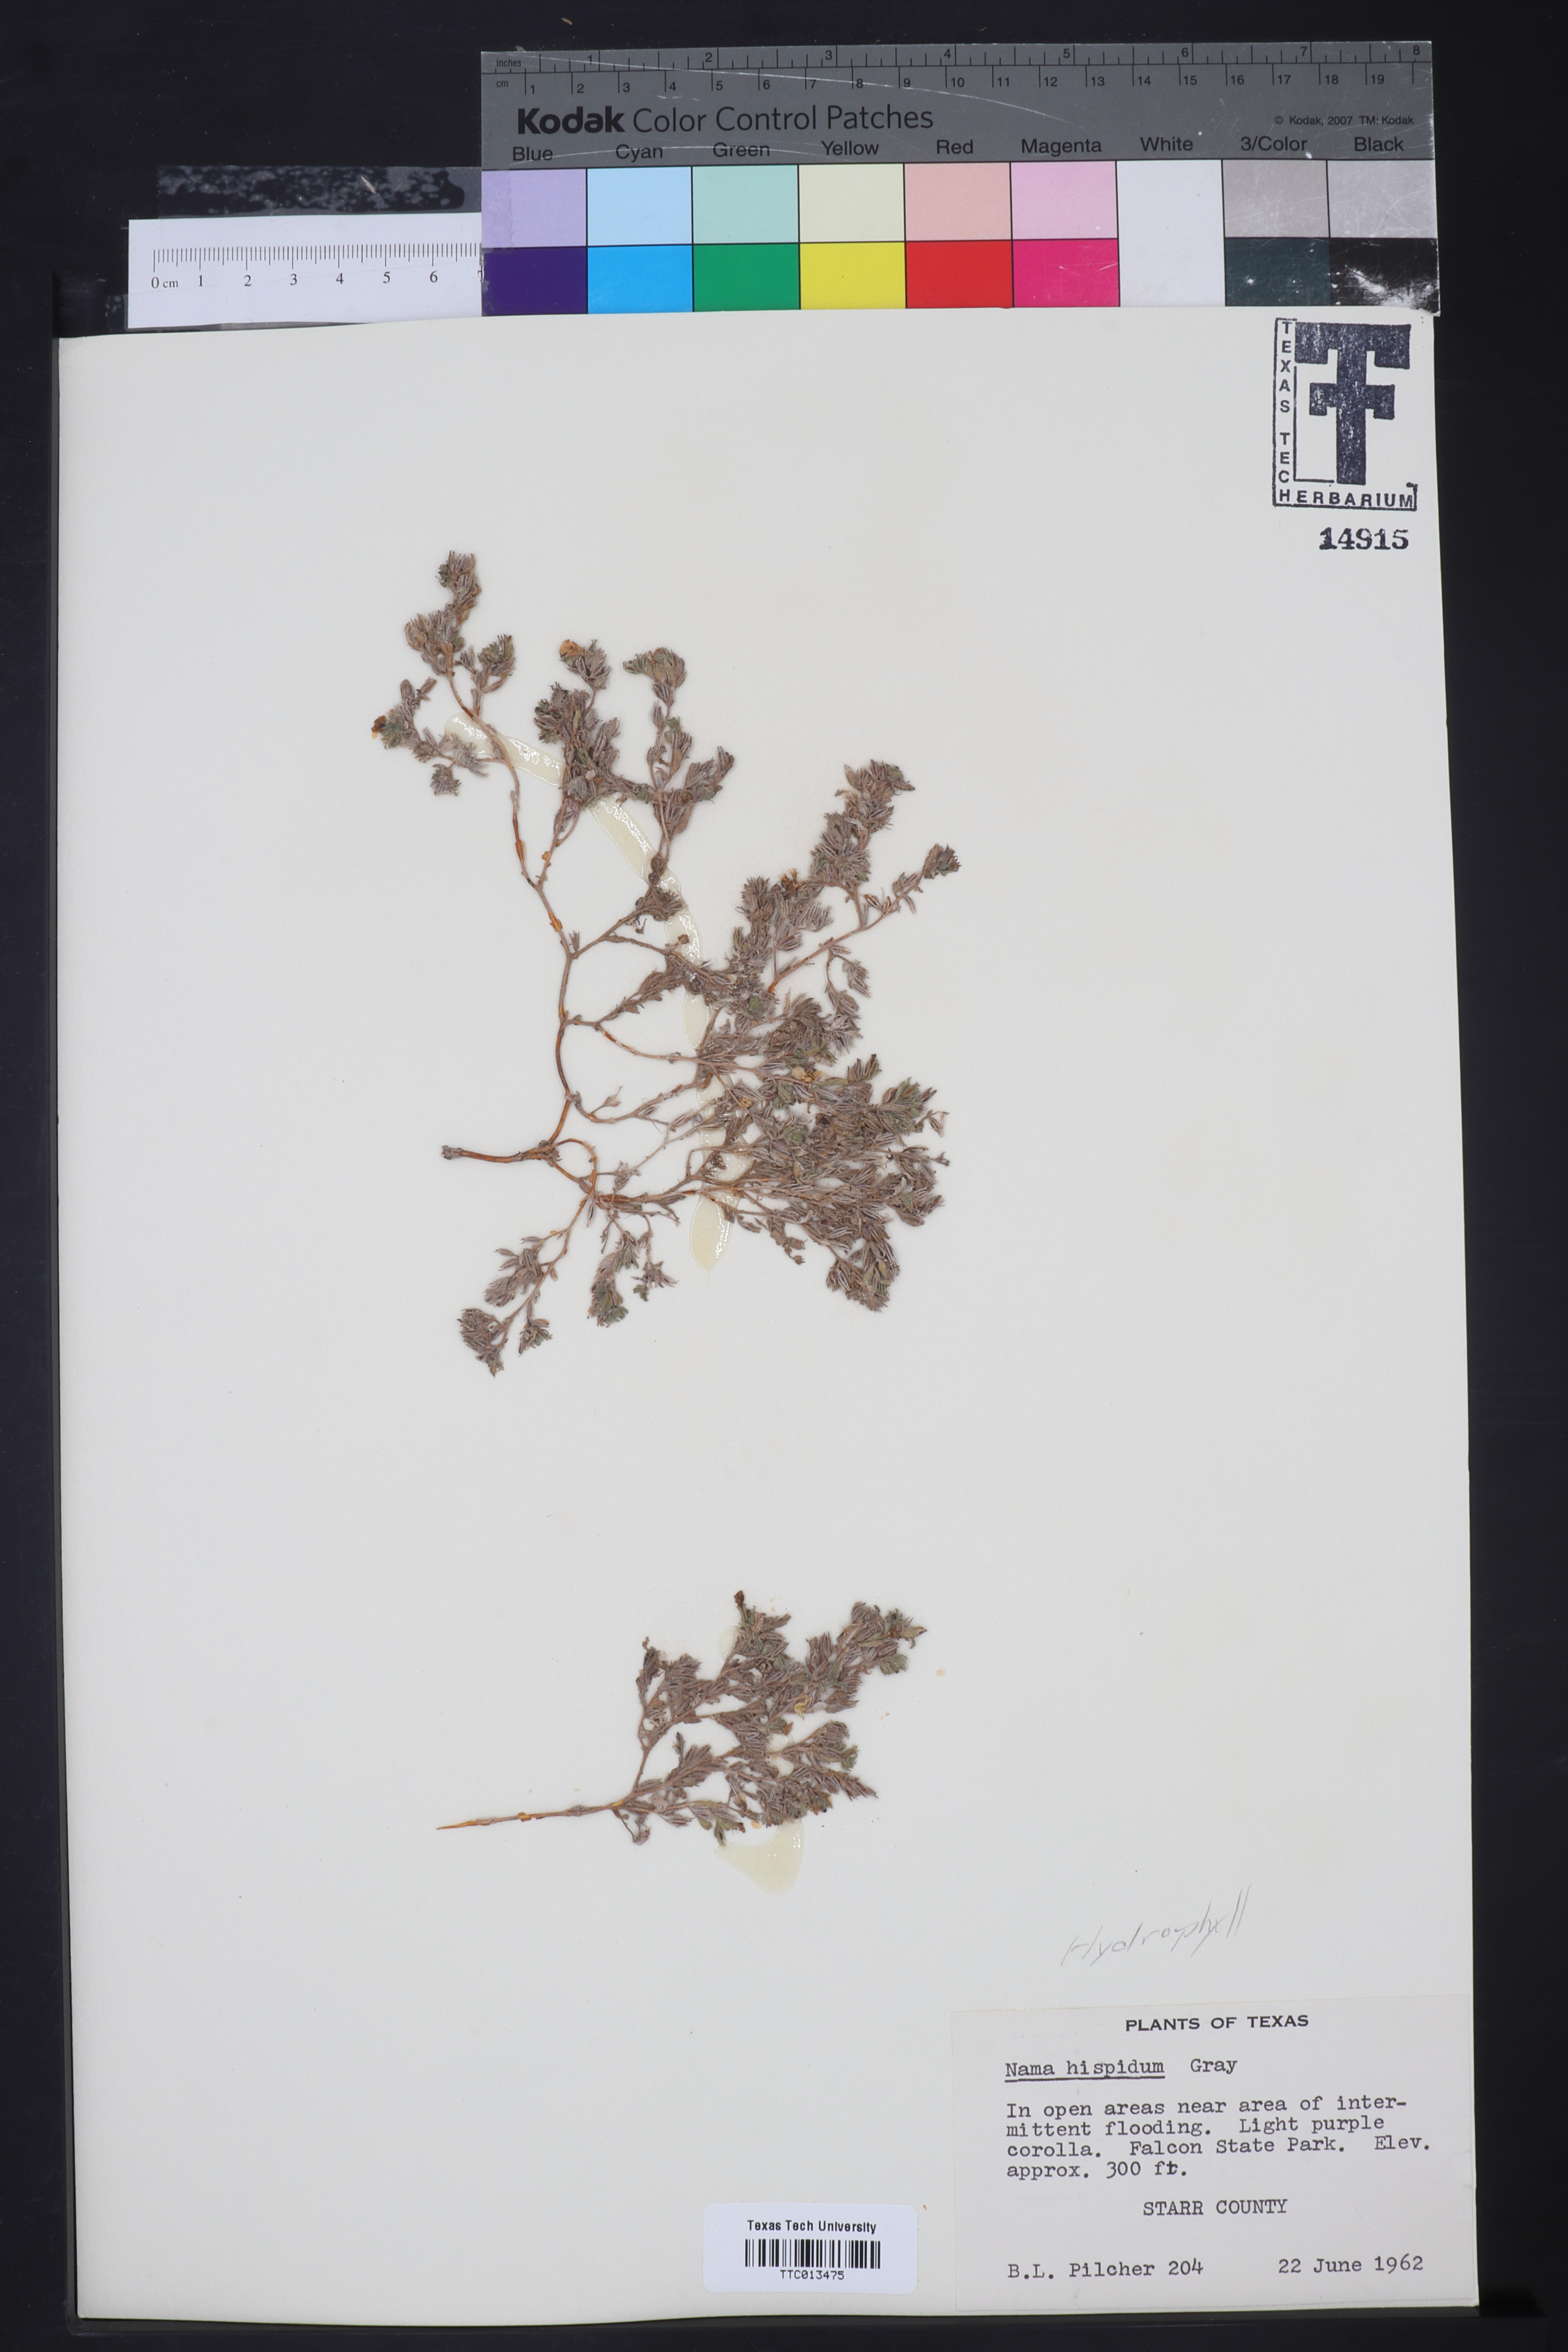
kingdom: Plantae
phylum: Tracheophyta
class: Magnoliopsida
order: Boraginales
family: Namaceae
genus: Nama
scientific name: Nama hispida
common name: Bristly nama
